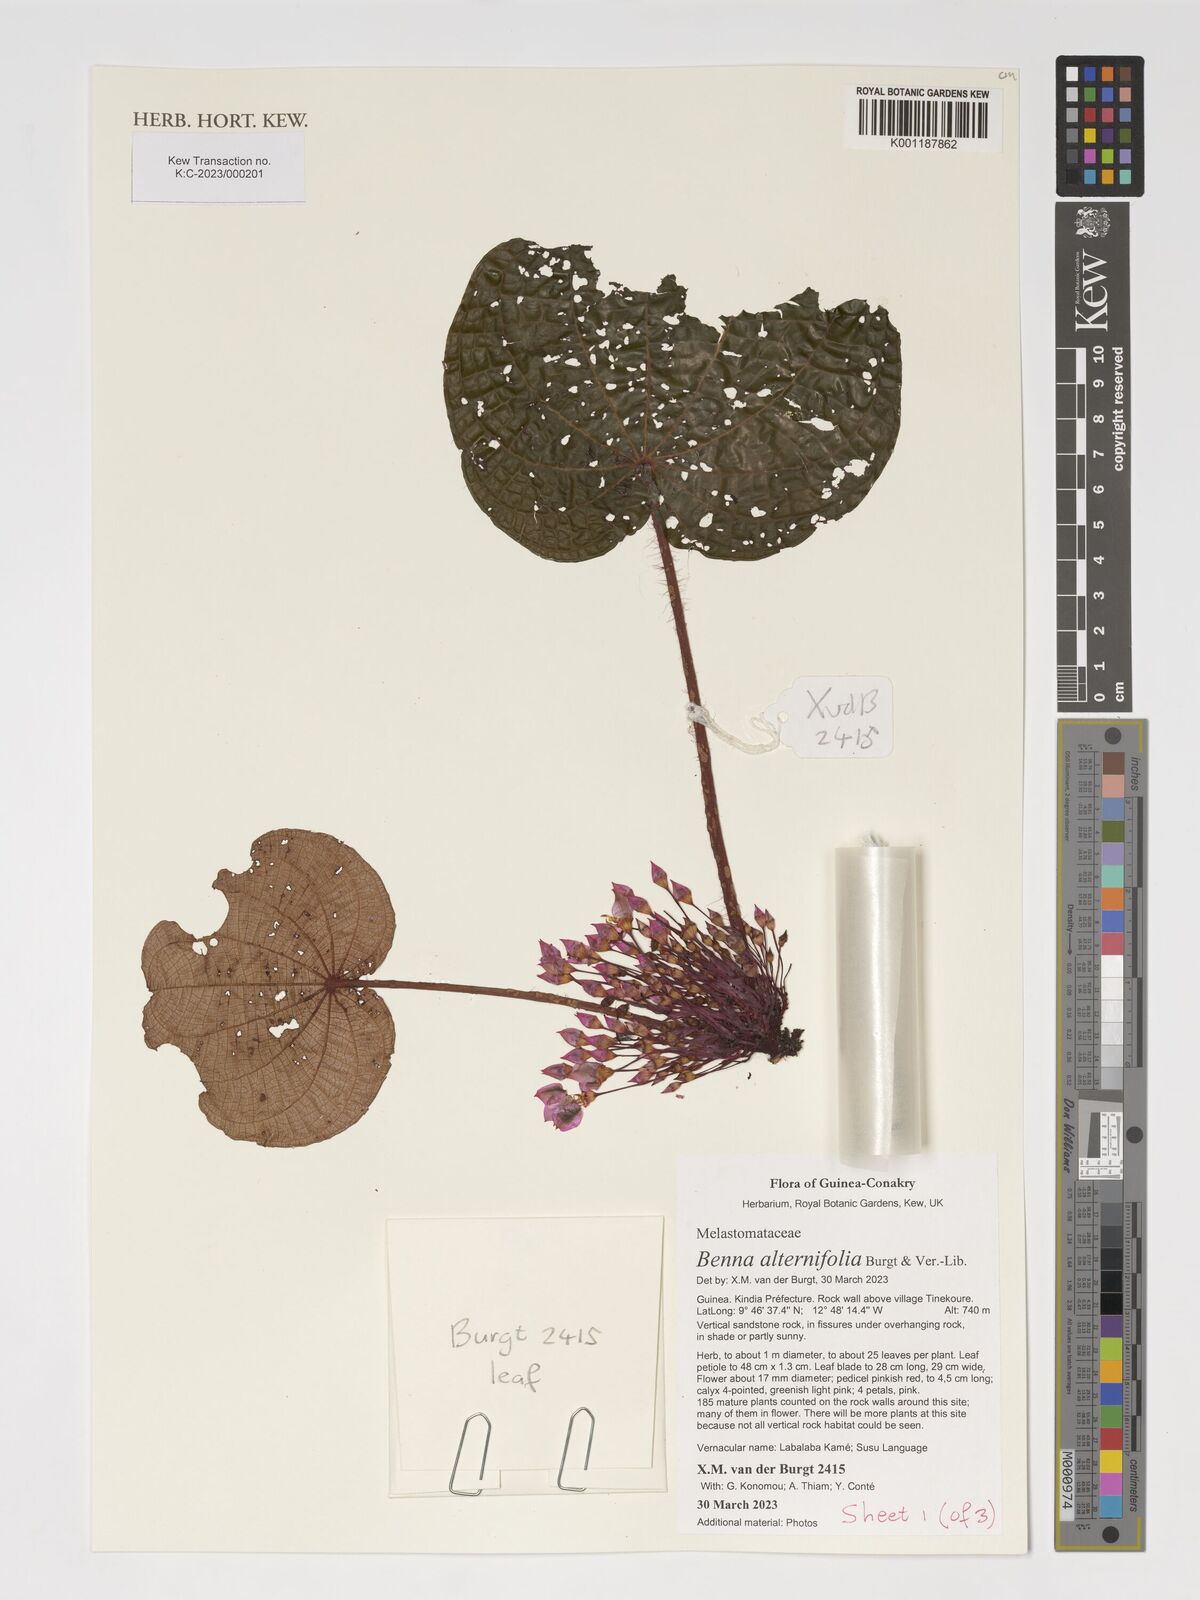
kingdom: Plantae
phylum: Tracheophyta
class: Magnoliopsida
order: Myrtales
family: Melastomataceae
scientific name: Melastomataceae
